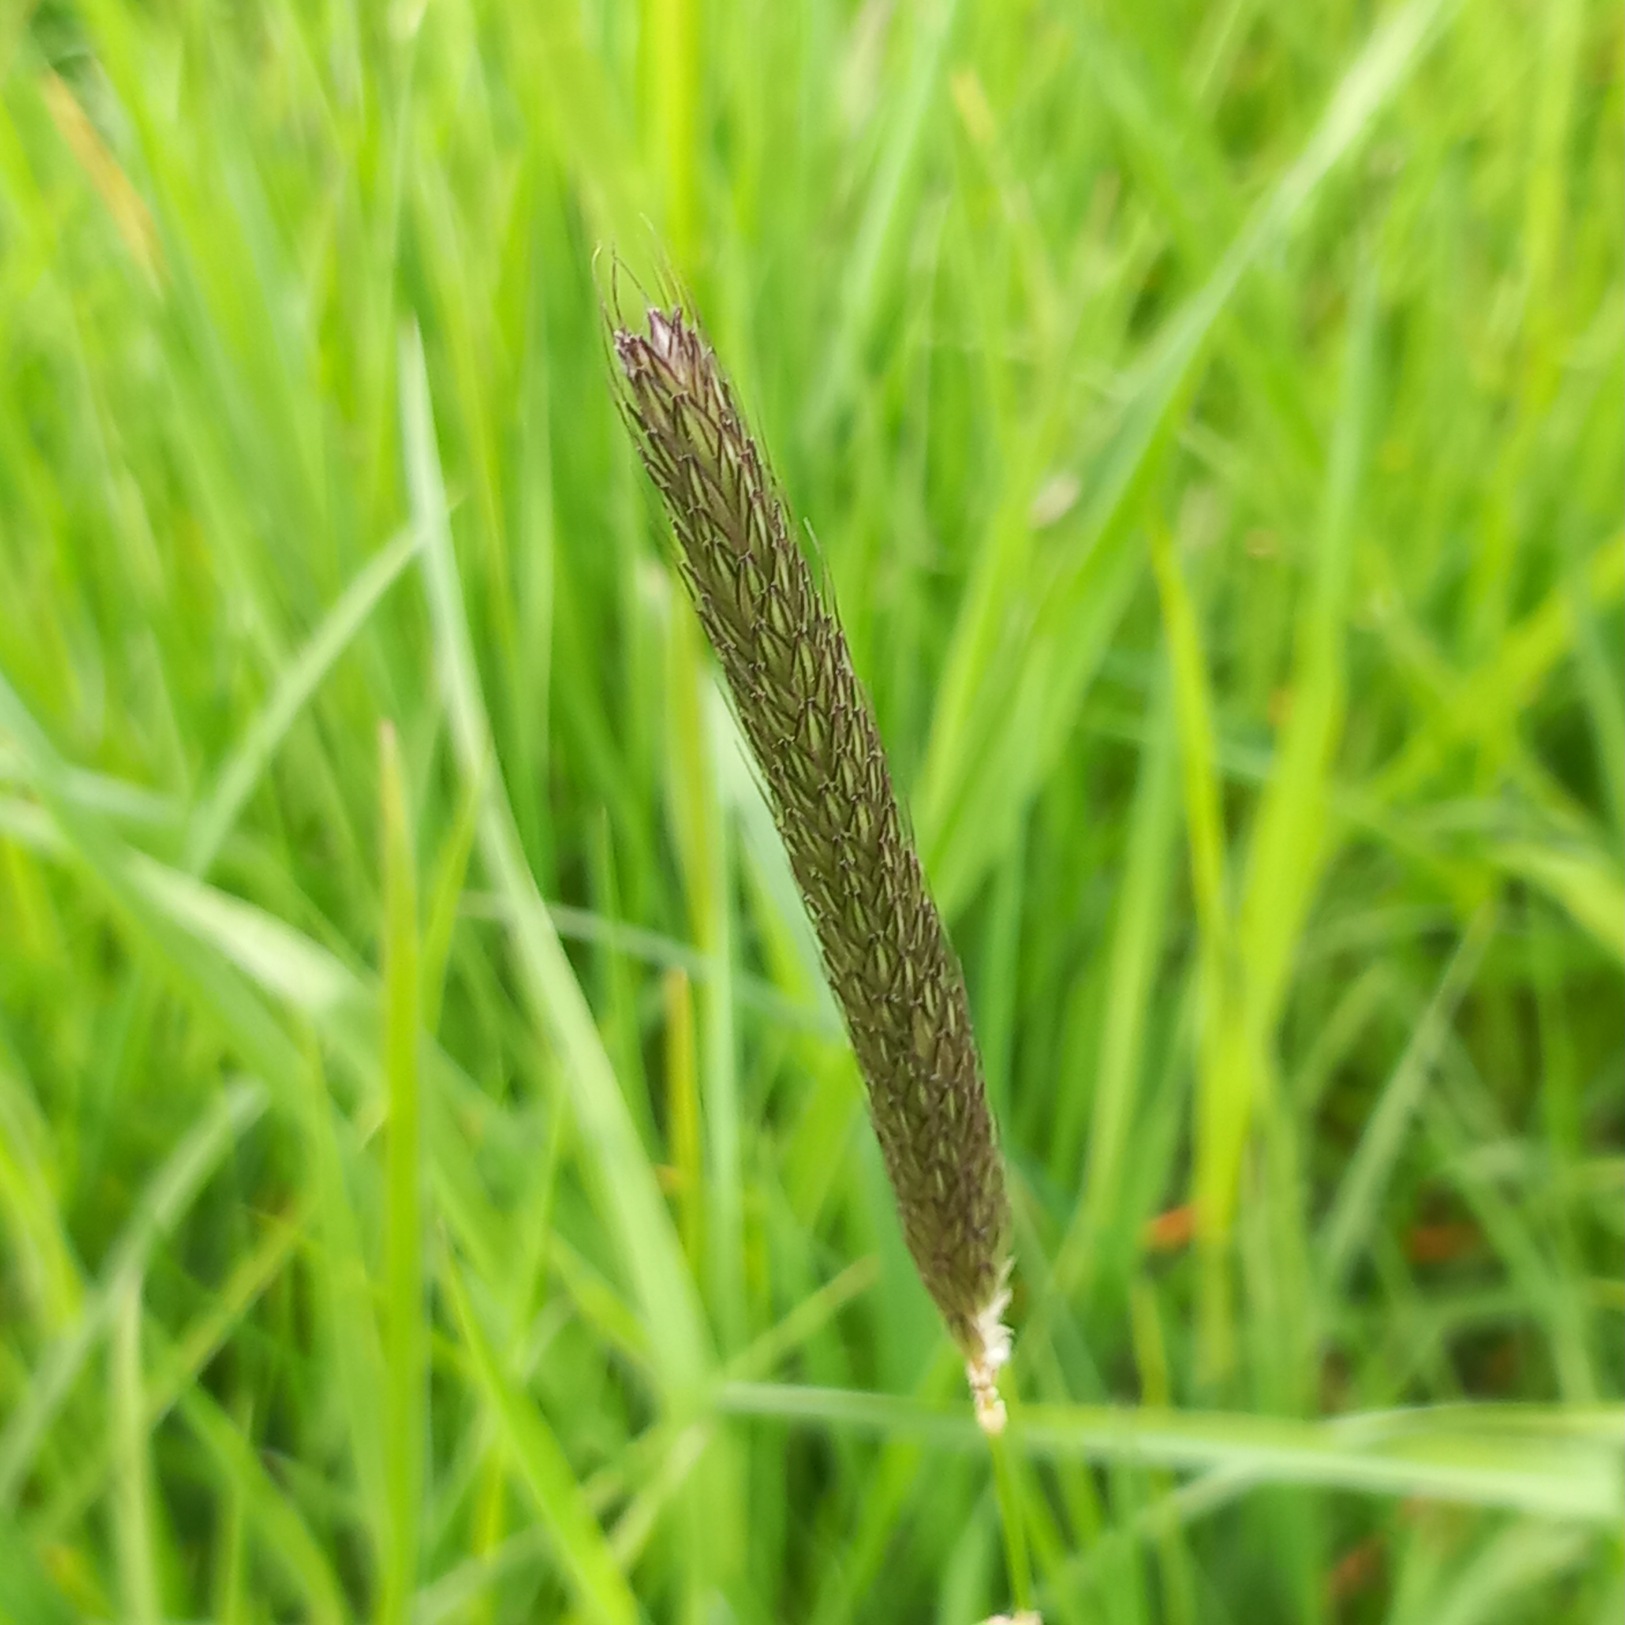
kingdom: Plantae
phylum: Tracheophyta
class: Liliopsida
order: Poales
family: Poaceae
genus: Alopecurus
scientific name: Alopecurus pratensis
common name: Eng-rævehale
